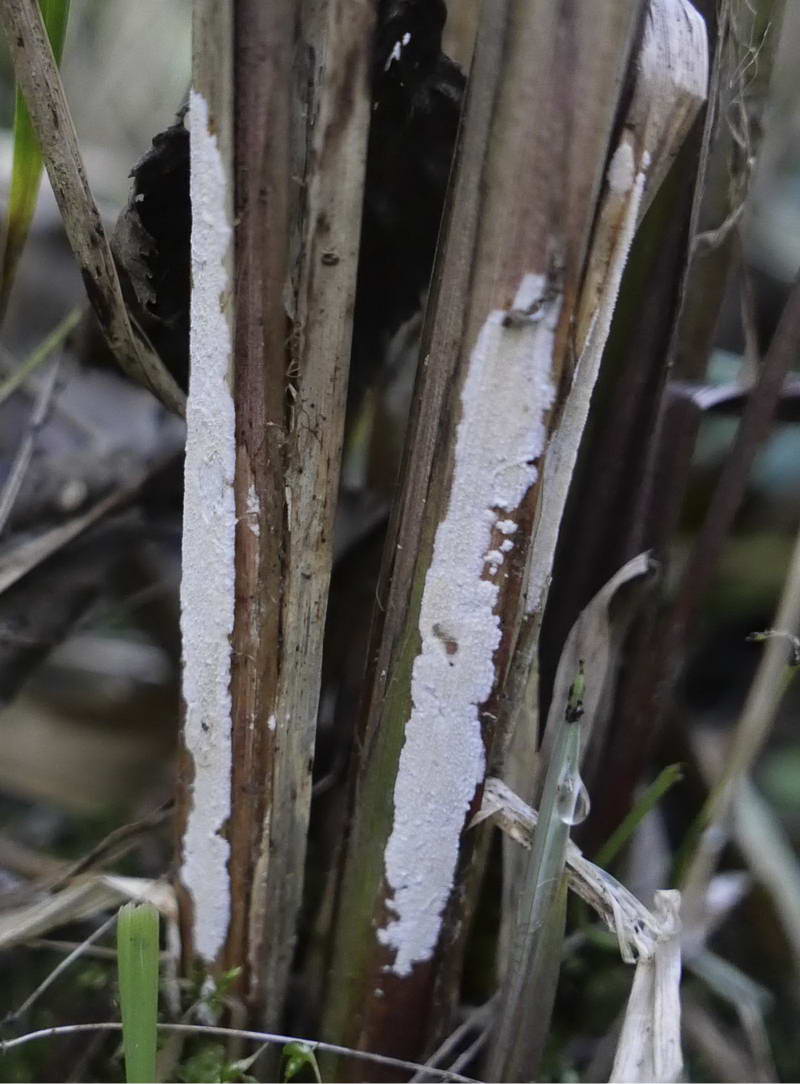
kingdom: Fungi
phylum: Basidiomycota
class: Agaricomycetes
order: Polyporales
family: Polyporaceae
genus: Epithele
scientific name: Epithele typhae
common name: starpig
